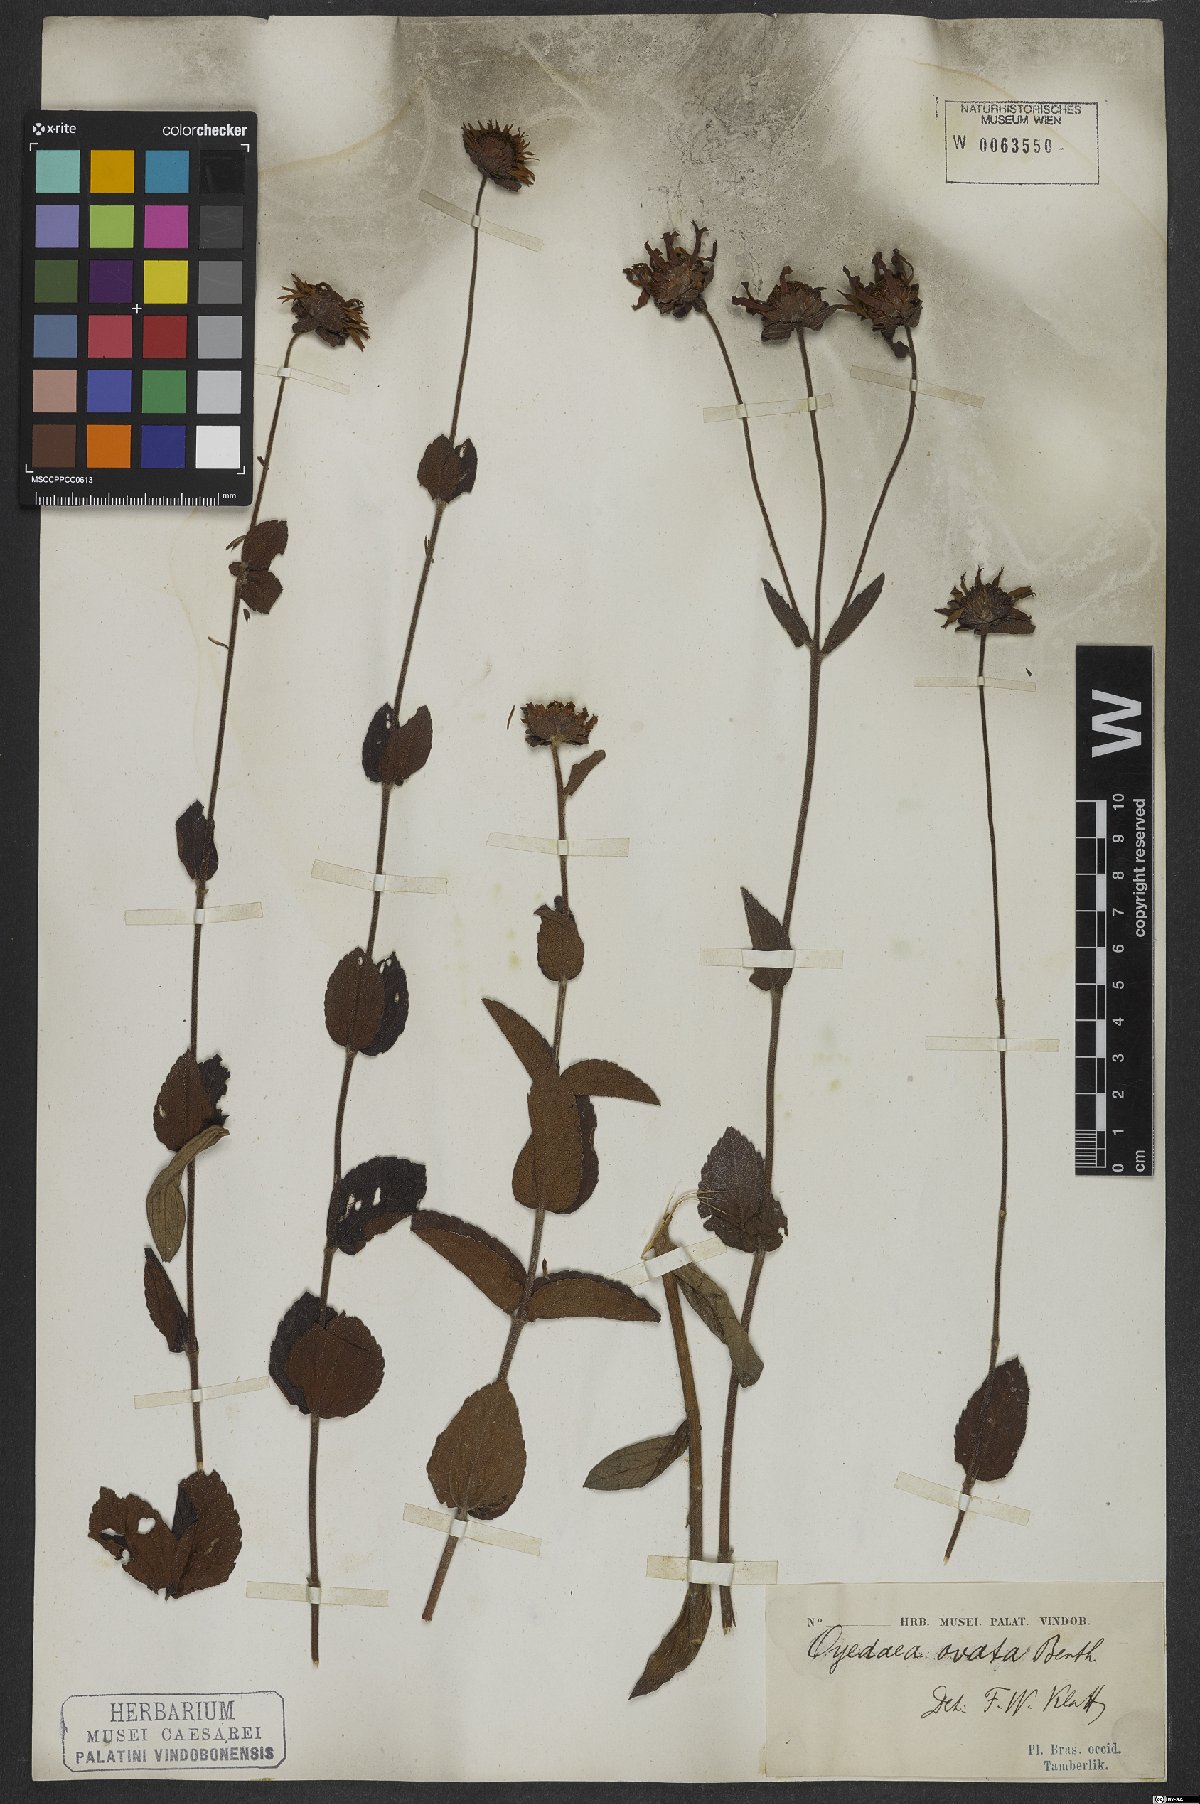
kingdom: Plantae
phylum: Tracheophyta
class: Magnoliopsida
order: Asterales
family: Asteraceae
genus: Oyedaea
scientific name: Oyedaea ovata
